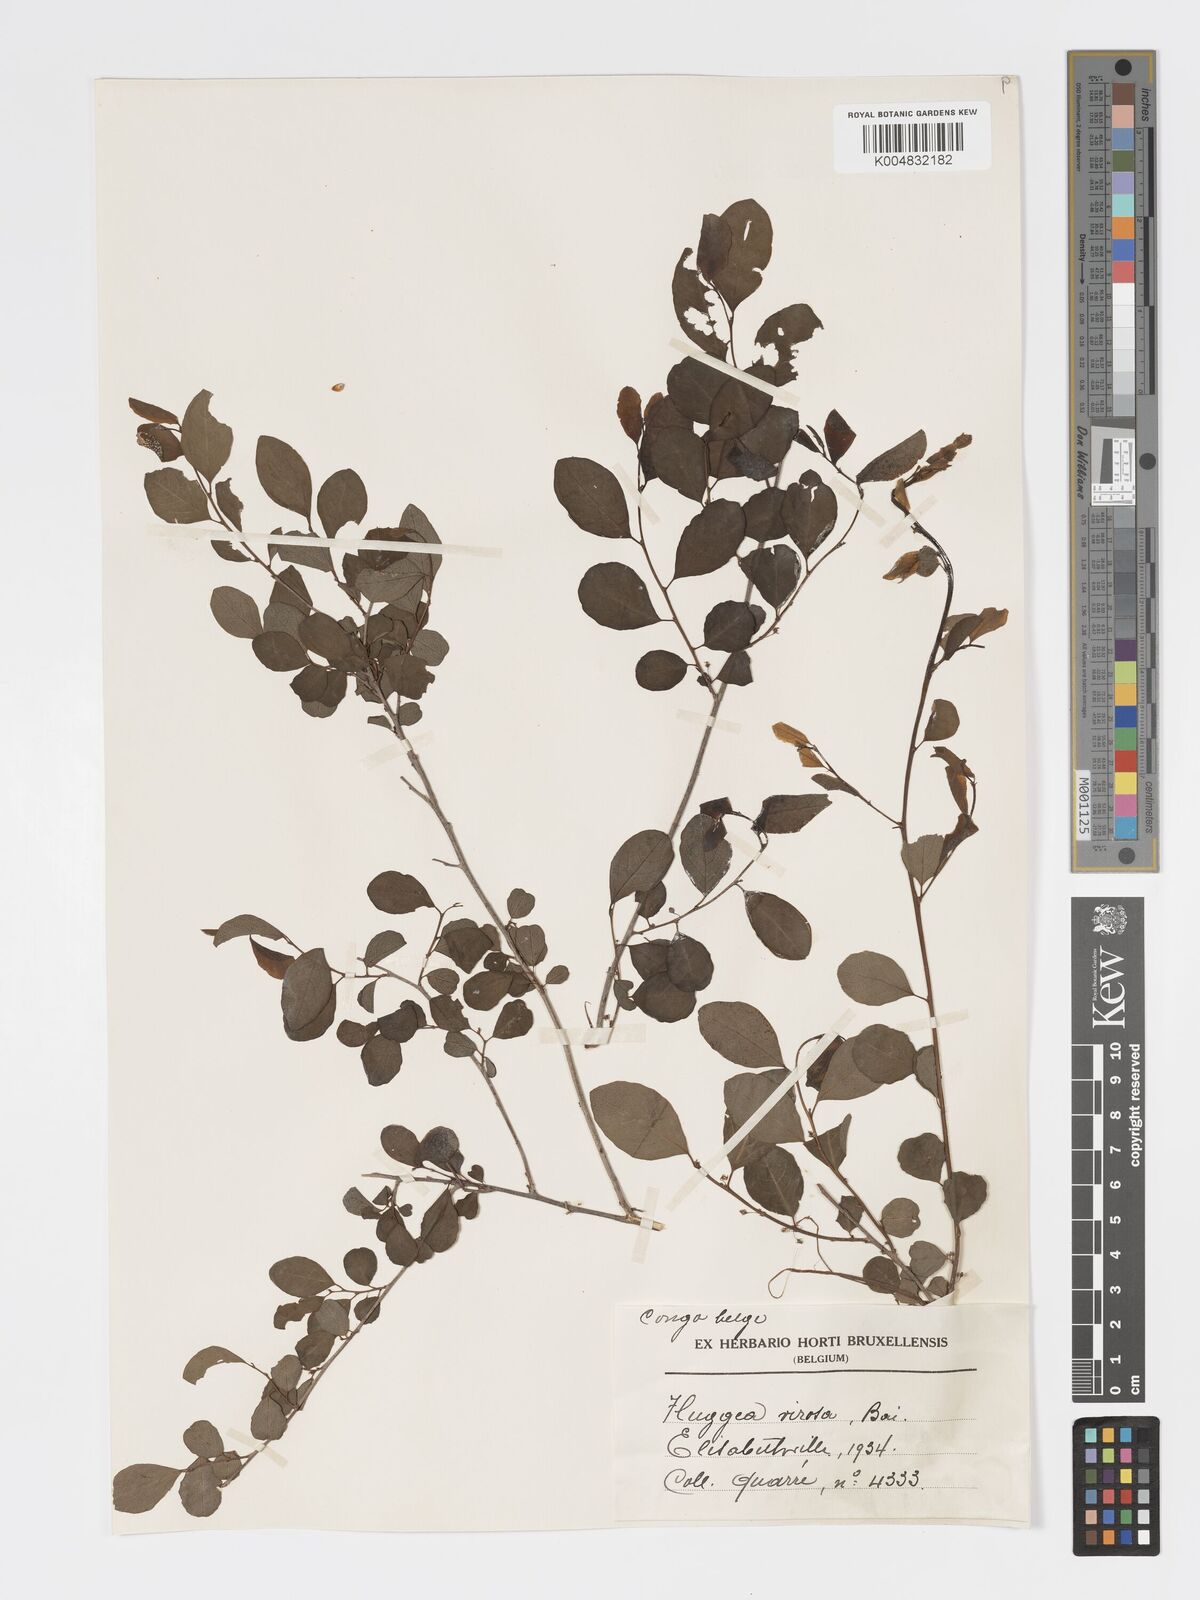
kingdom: Plantae
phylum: Tracheophyta
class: Magnoliopsida
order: Malpighiales
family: Phyllanthaceae
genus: Flueggea
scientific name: Flueggea virosa
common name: Common bushweed
